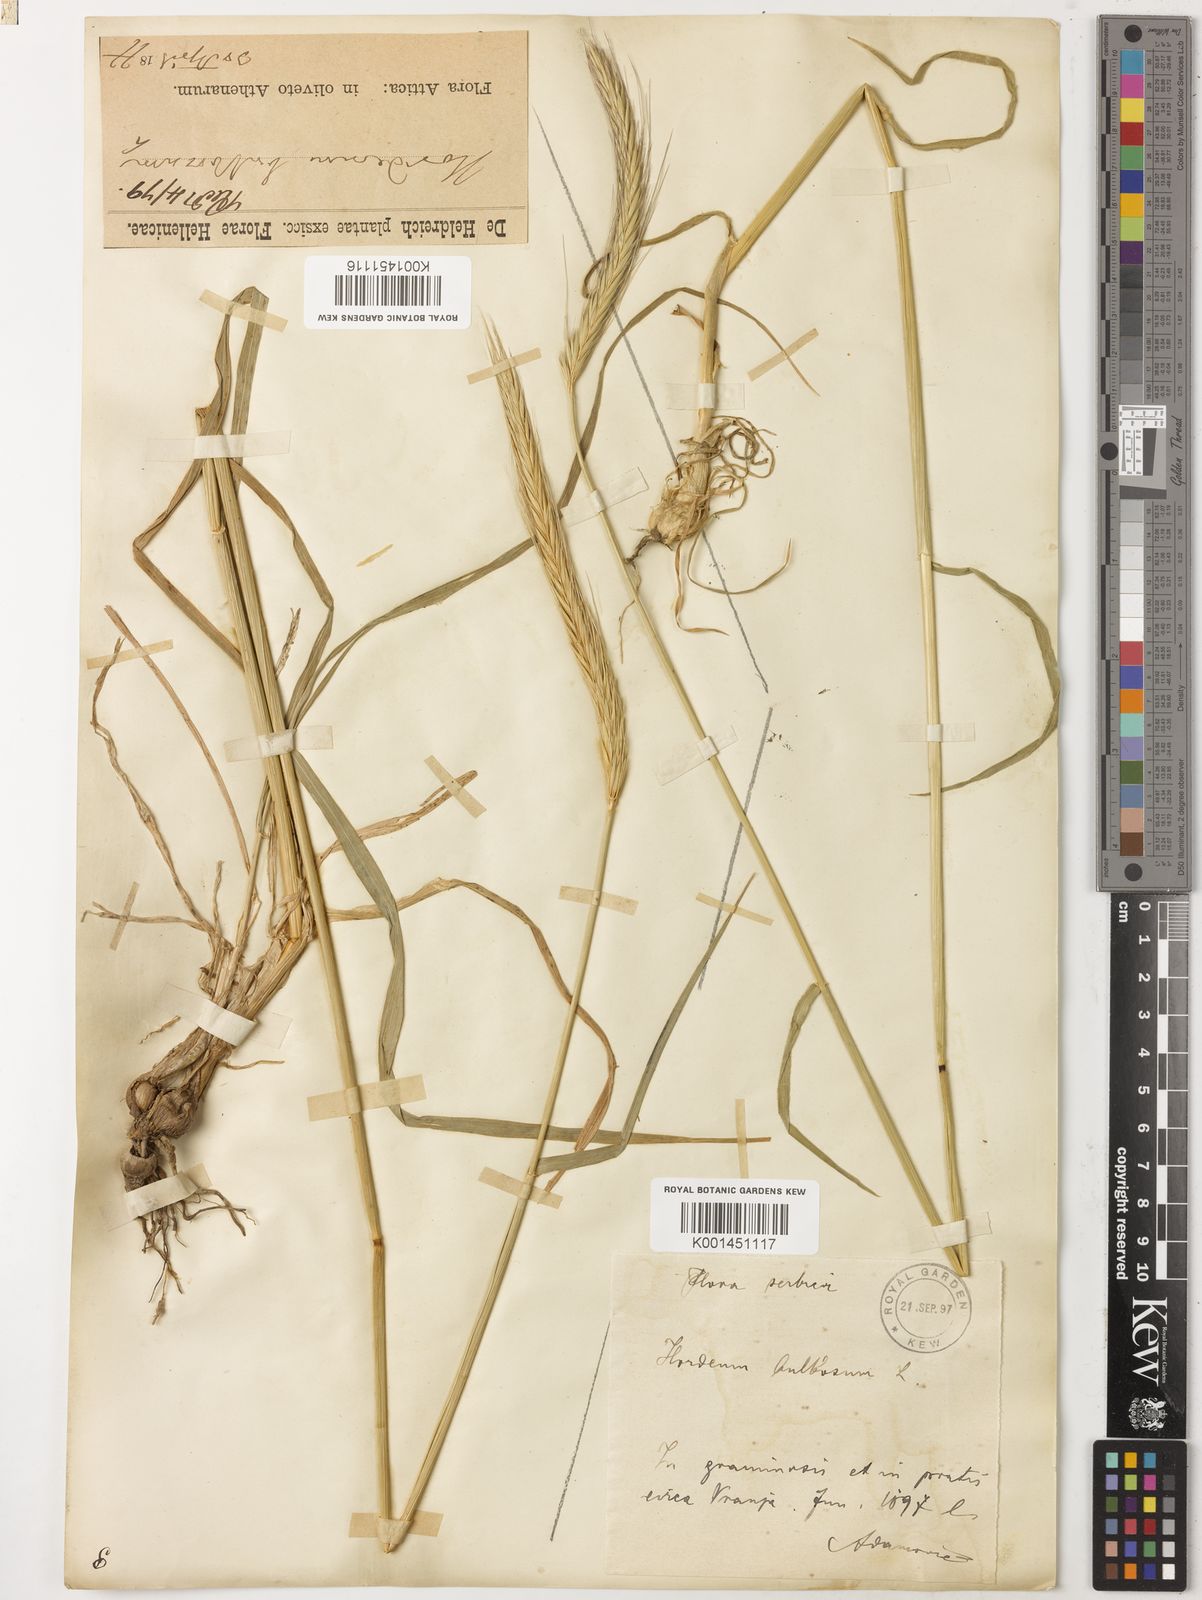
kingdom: Plantae
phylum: Tracheophyta
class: Liliopsida
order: Poales
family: Poaceae
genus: Hordeum
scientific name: Hordeum bulbosum
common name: Bulbous barley
